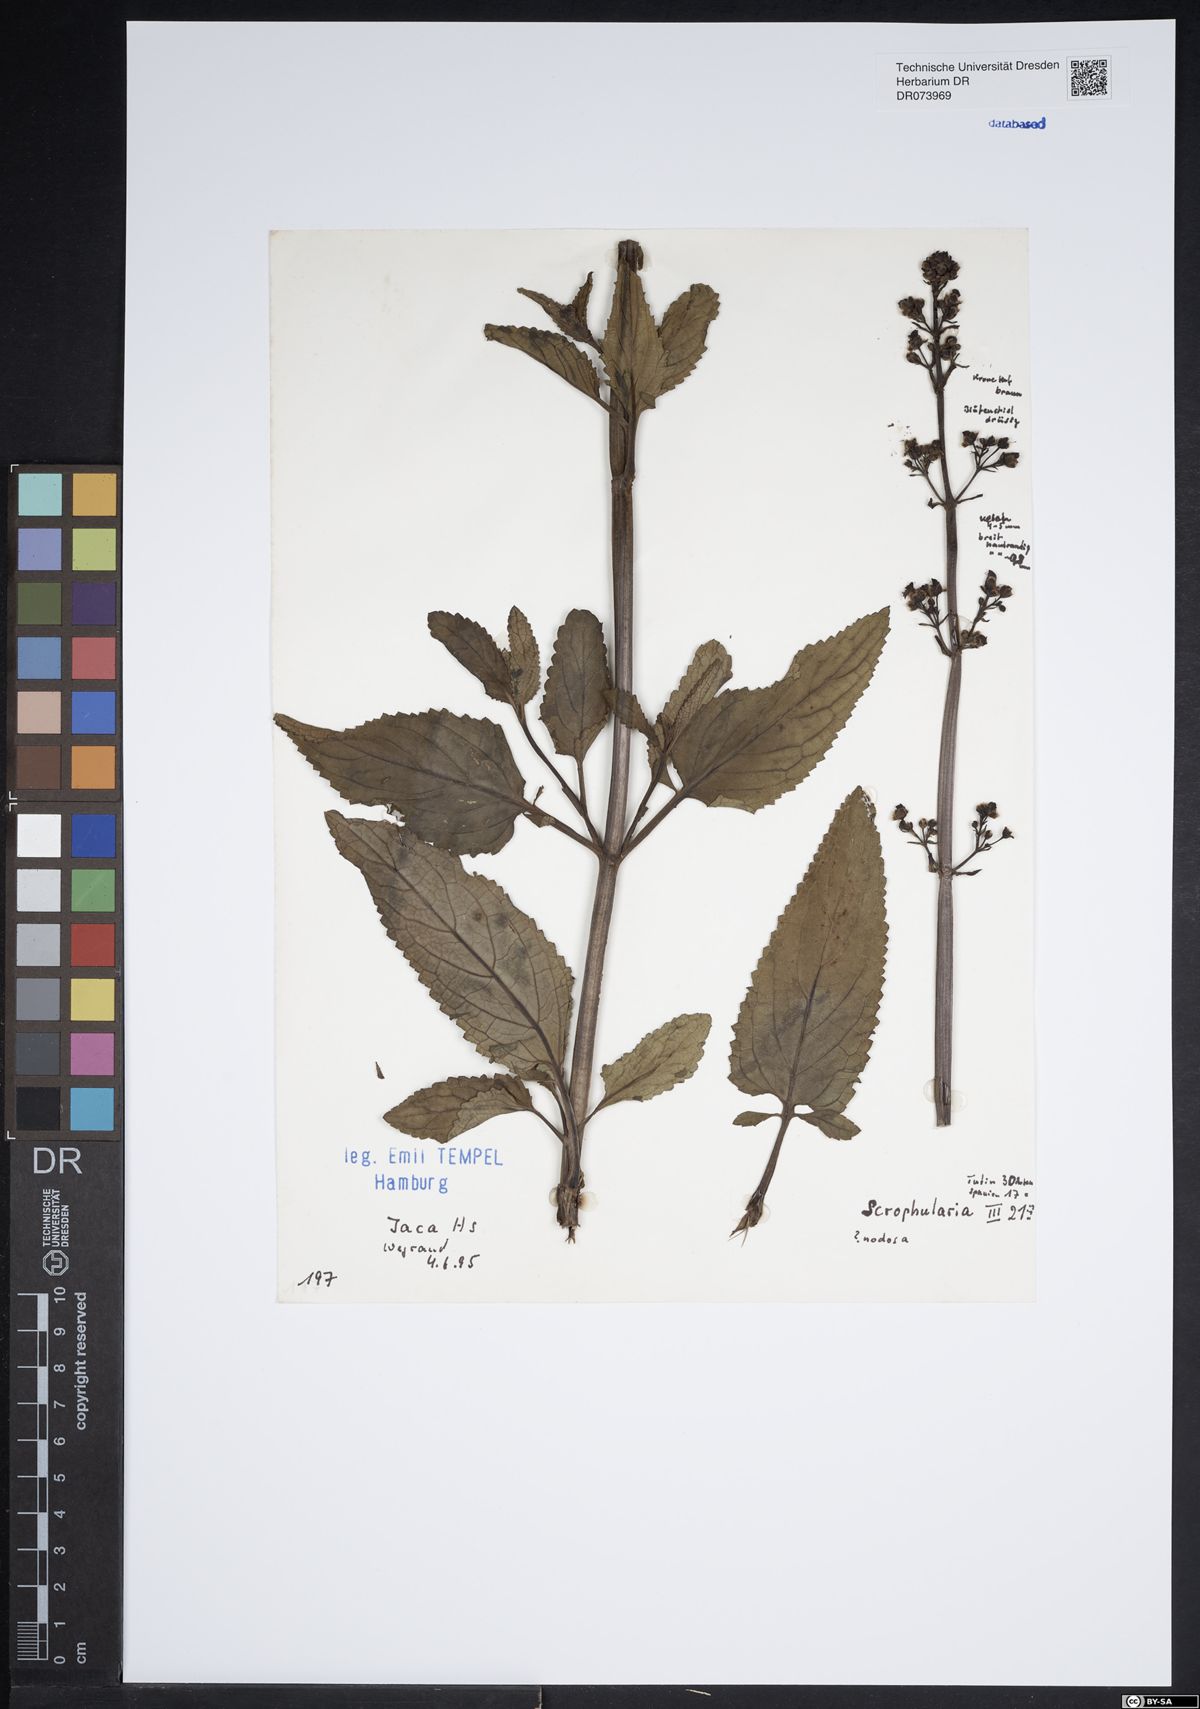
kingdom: Plantae
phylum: Tracheophyta
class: Magnoliopsida
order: Lamiales
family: Scrophulariaceae
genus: Scrophularia
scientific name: Scrophularia nodosa
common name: Common figwort
